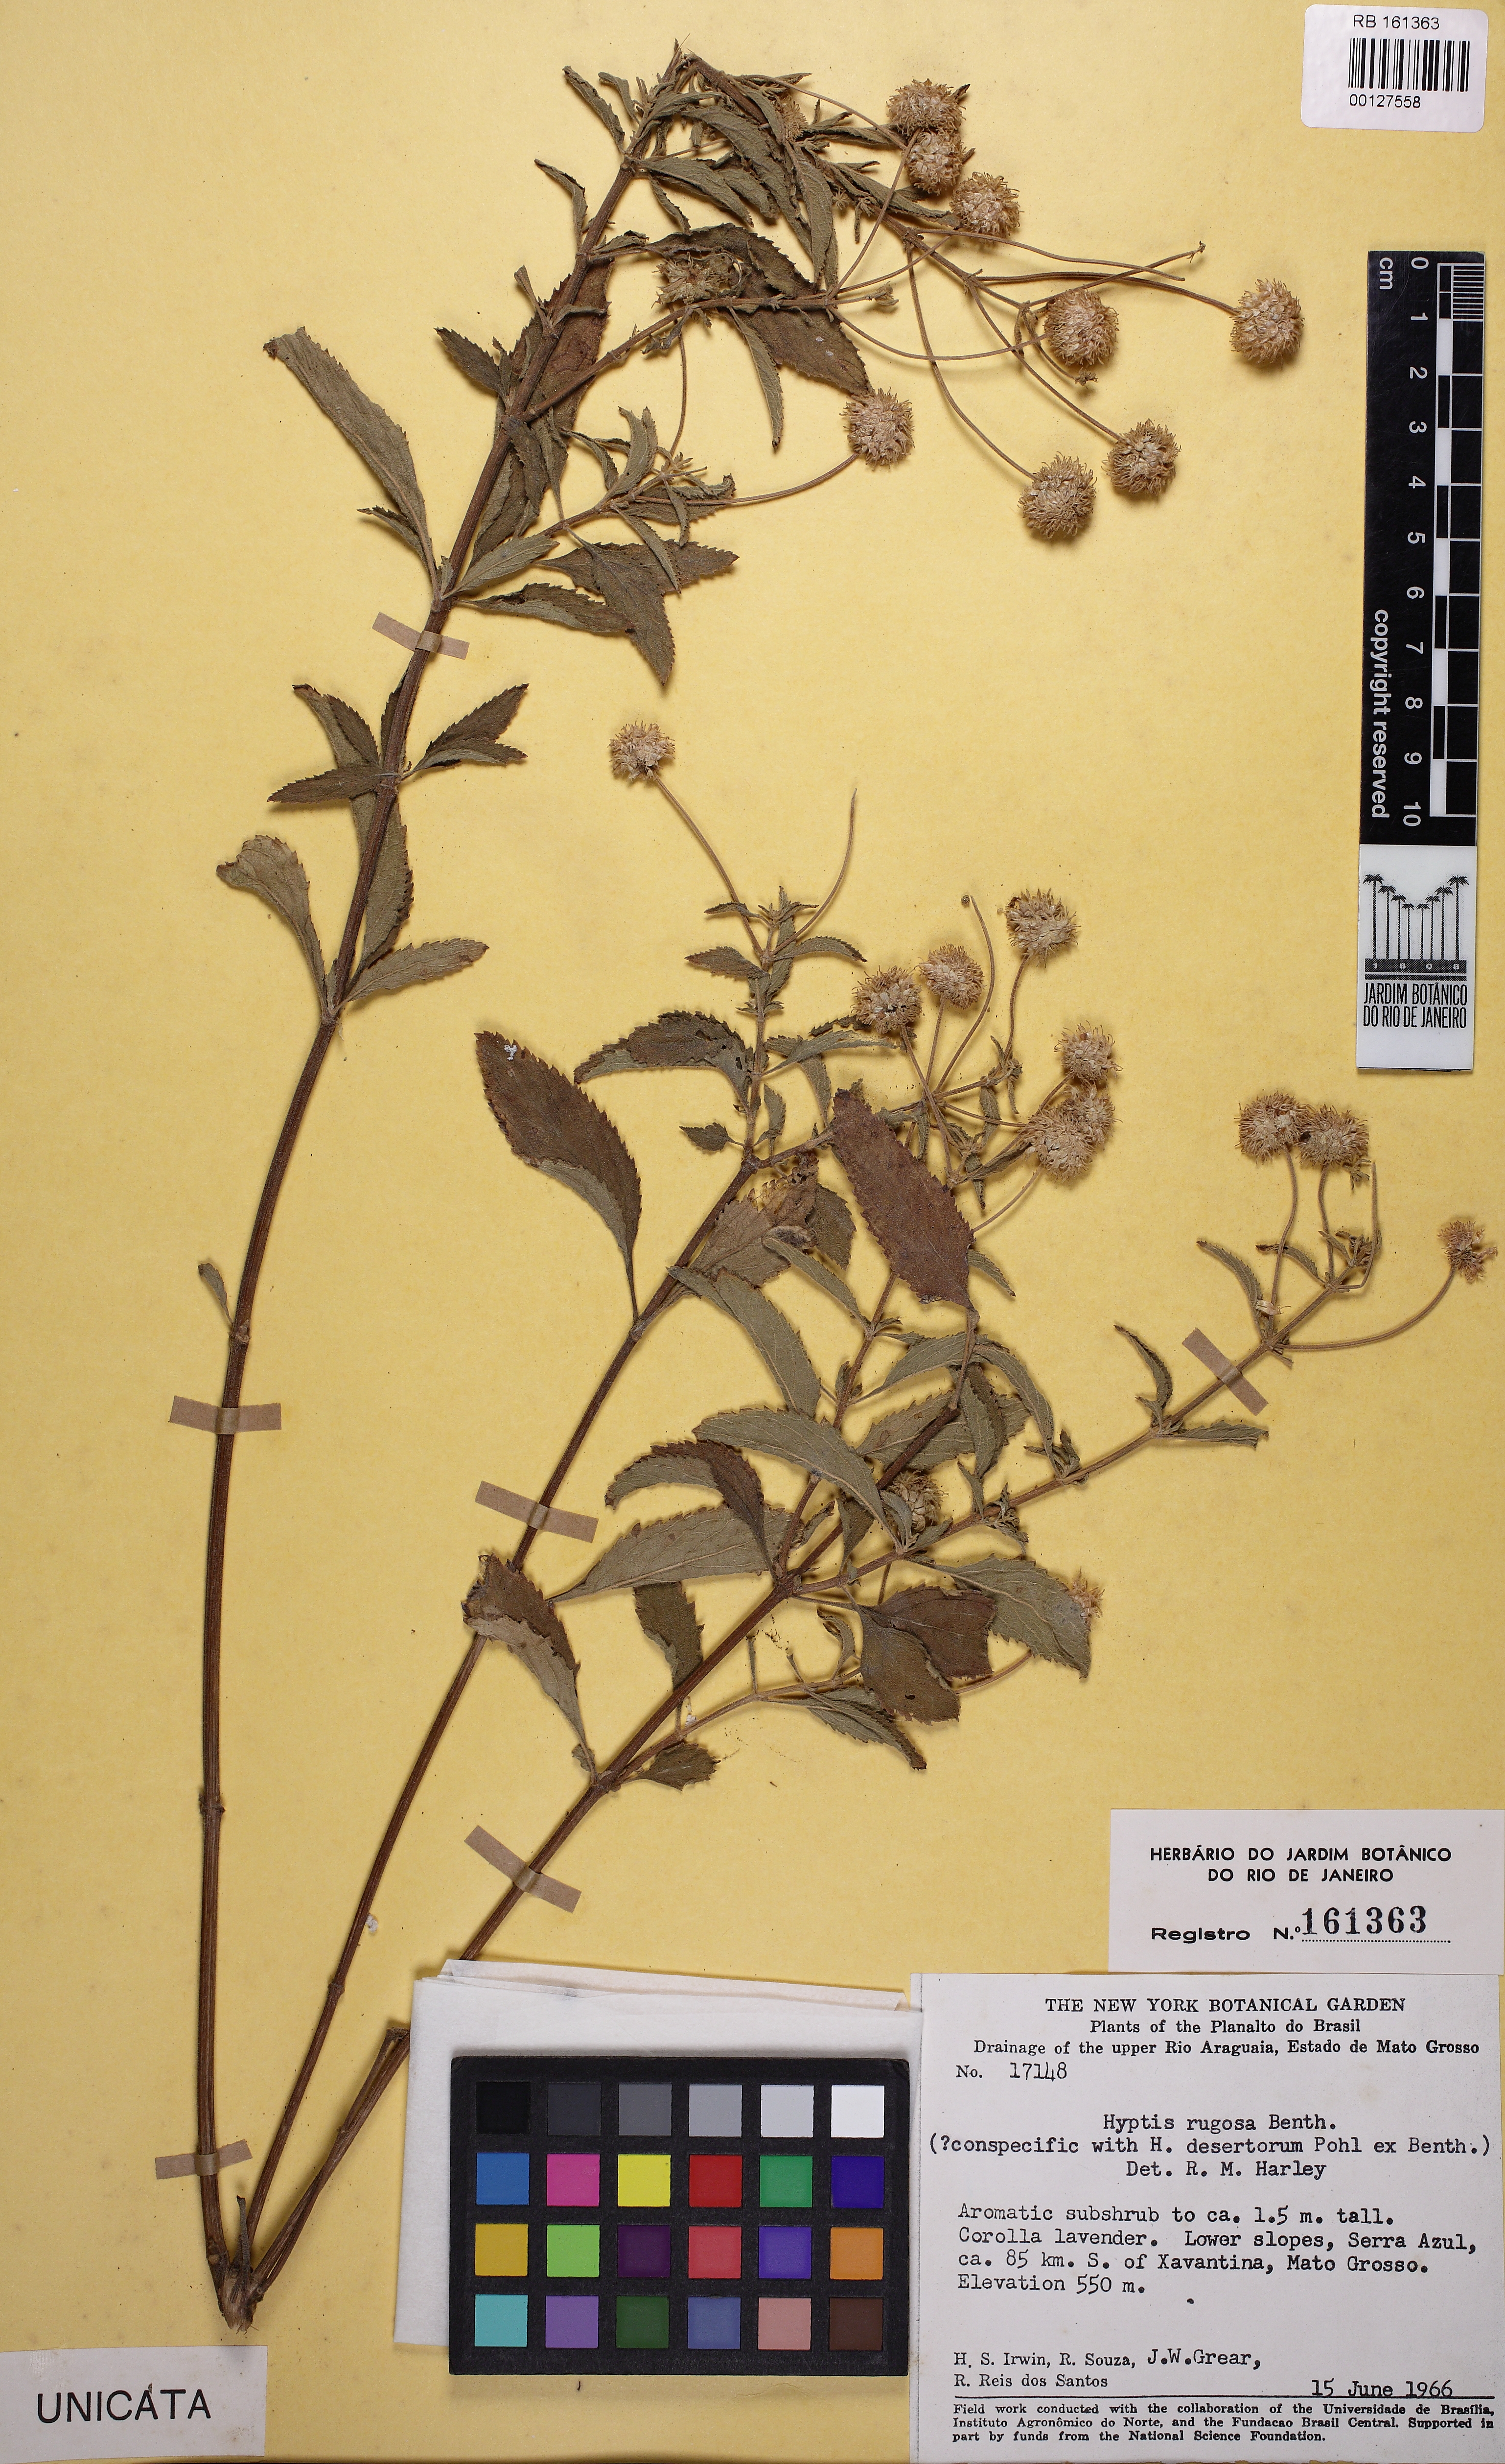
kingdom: Plantae
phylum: Tracheophyta
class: Magnoliopsida
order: Lamiales
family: Lamiaceae
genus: Cyanocephalus
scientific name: Cyanocephalus rugosus
